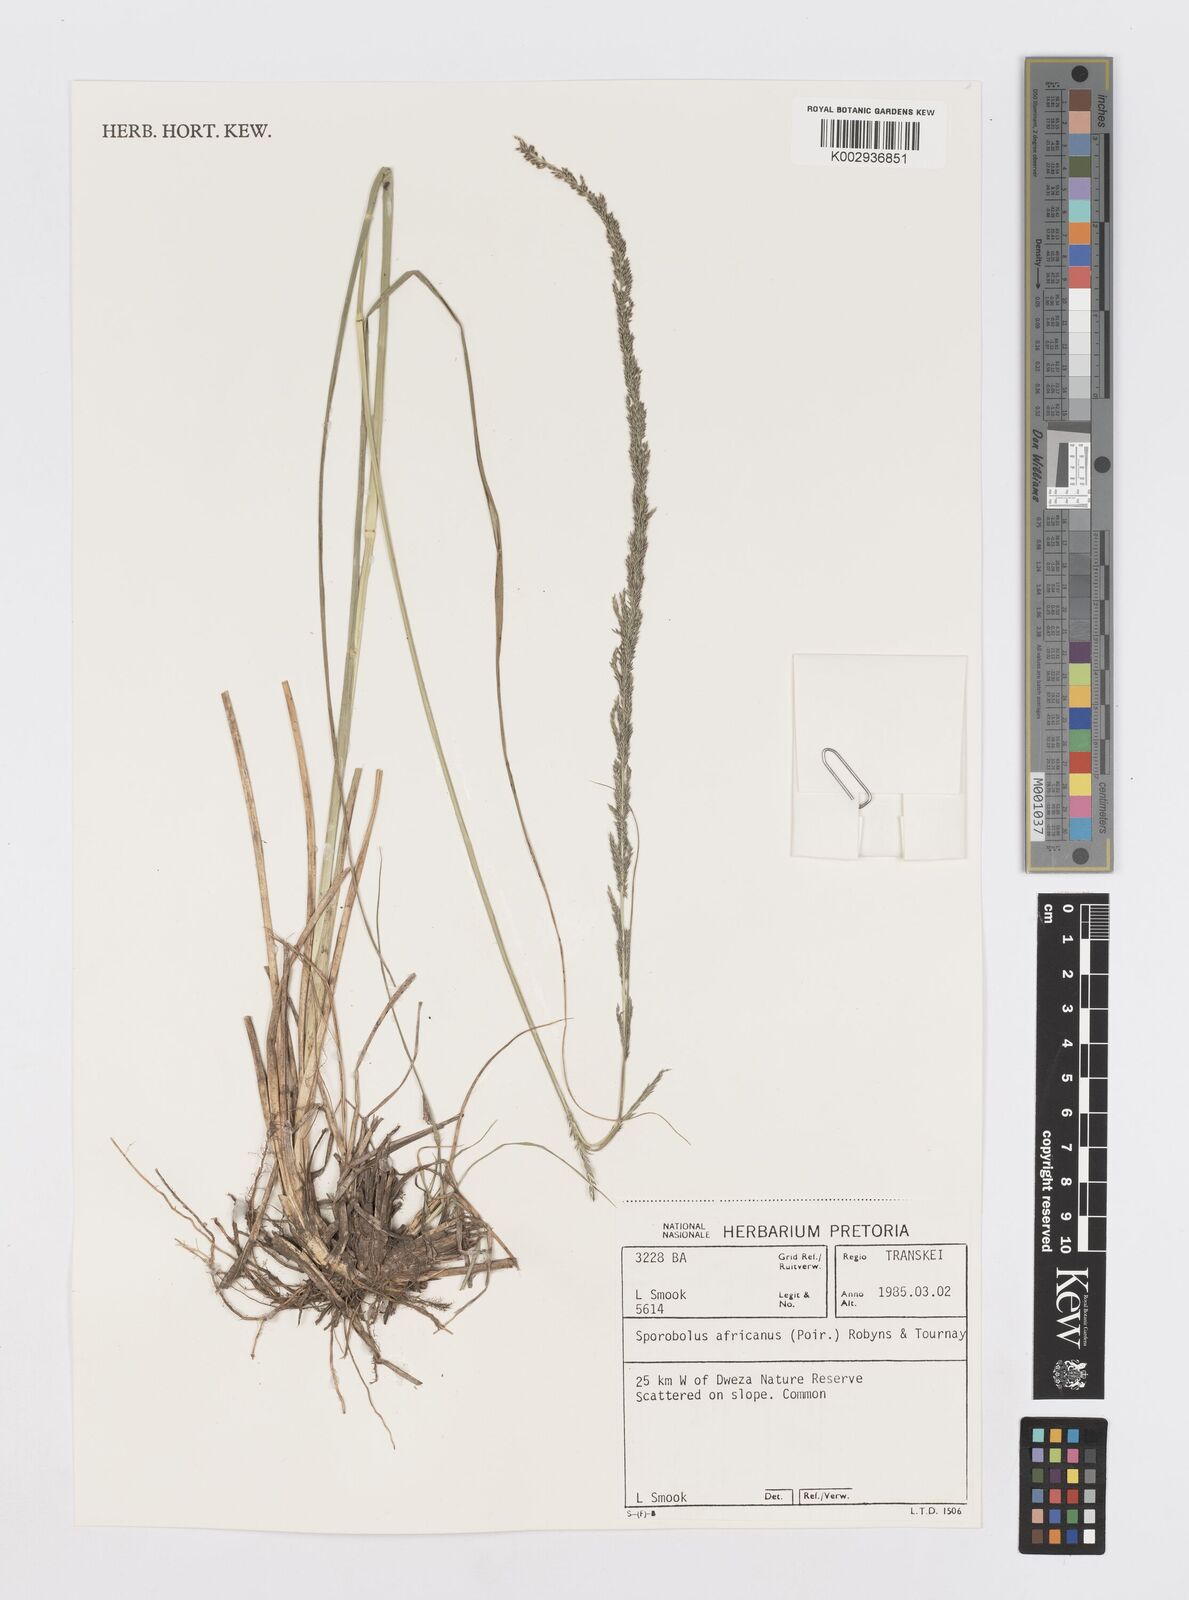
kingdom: Plantae
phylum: Tracheophyta
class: Liliopsida
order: Poales
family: Poaceae
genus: Sporobolus
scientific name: Sporobolus africanus
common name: African dropseed
